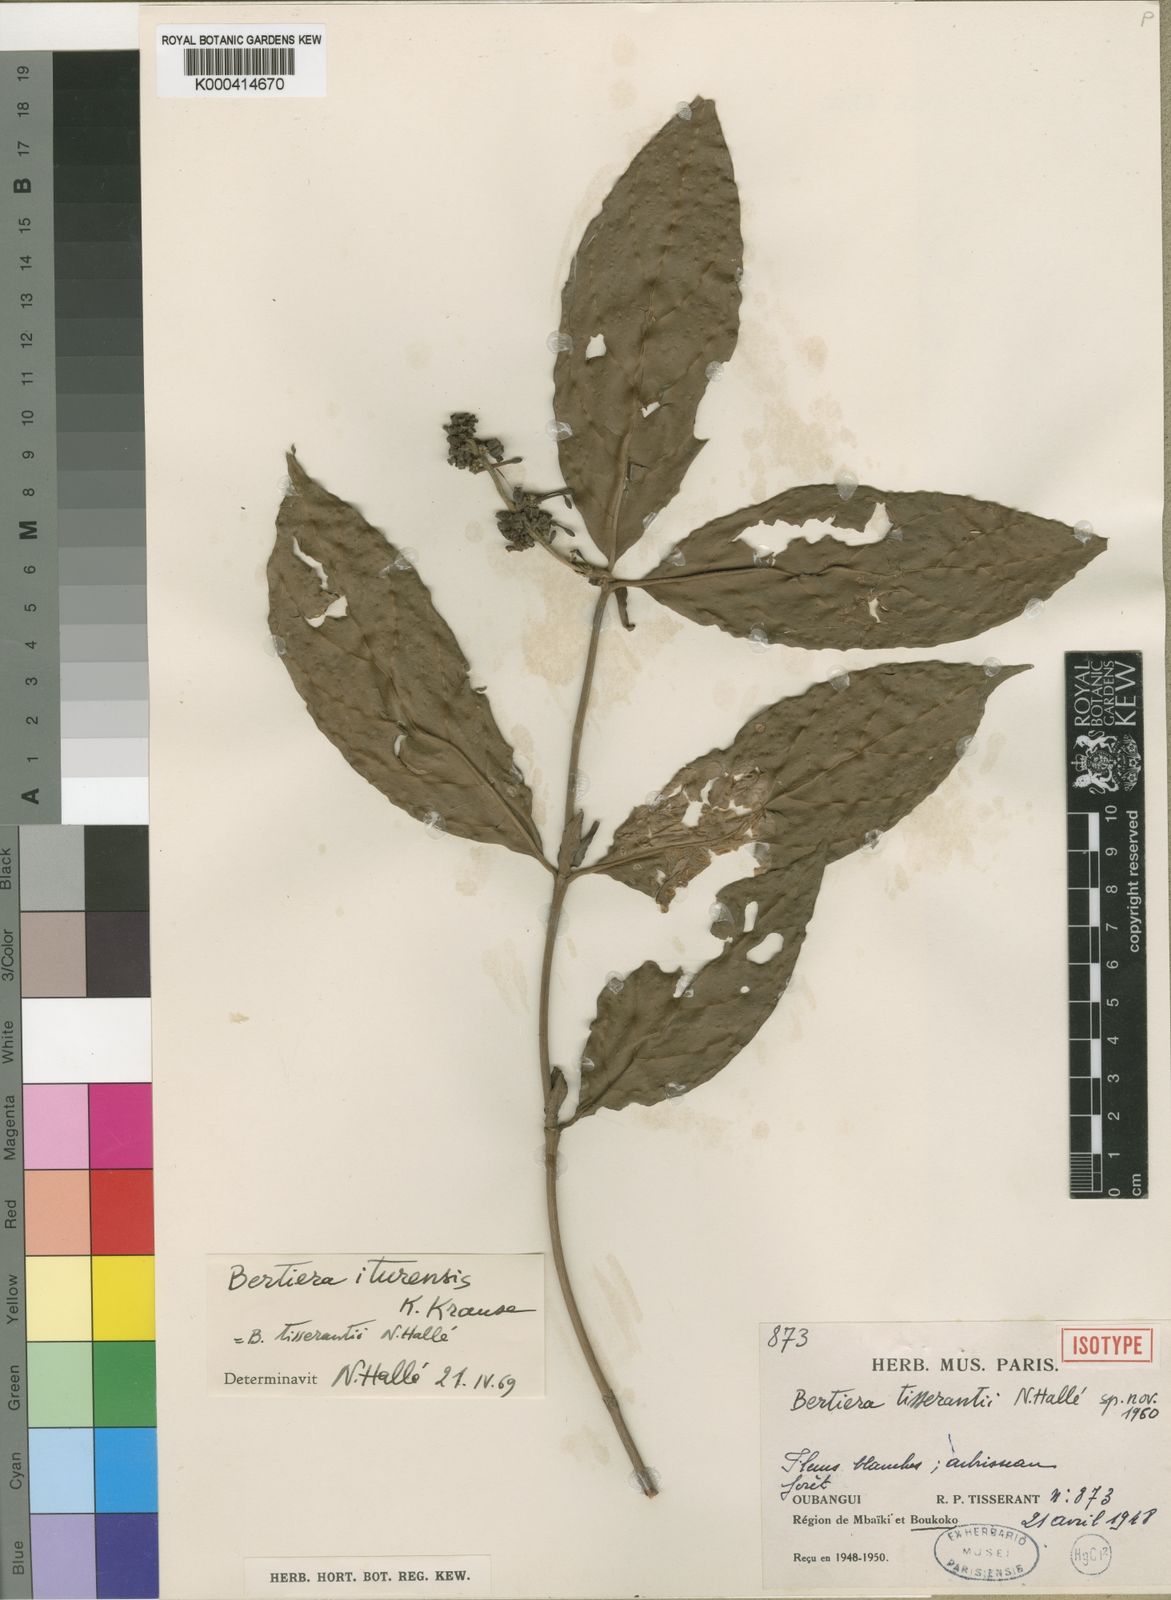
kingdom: Plantae
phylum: Tracheophyta
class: Magnoliopsida
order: Gentianales
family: Rubiaceae
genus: Bertiera
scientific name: Bertiera iturensis
